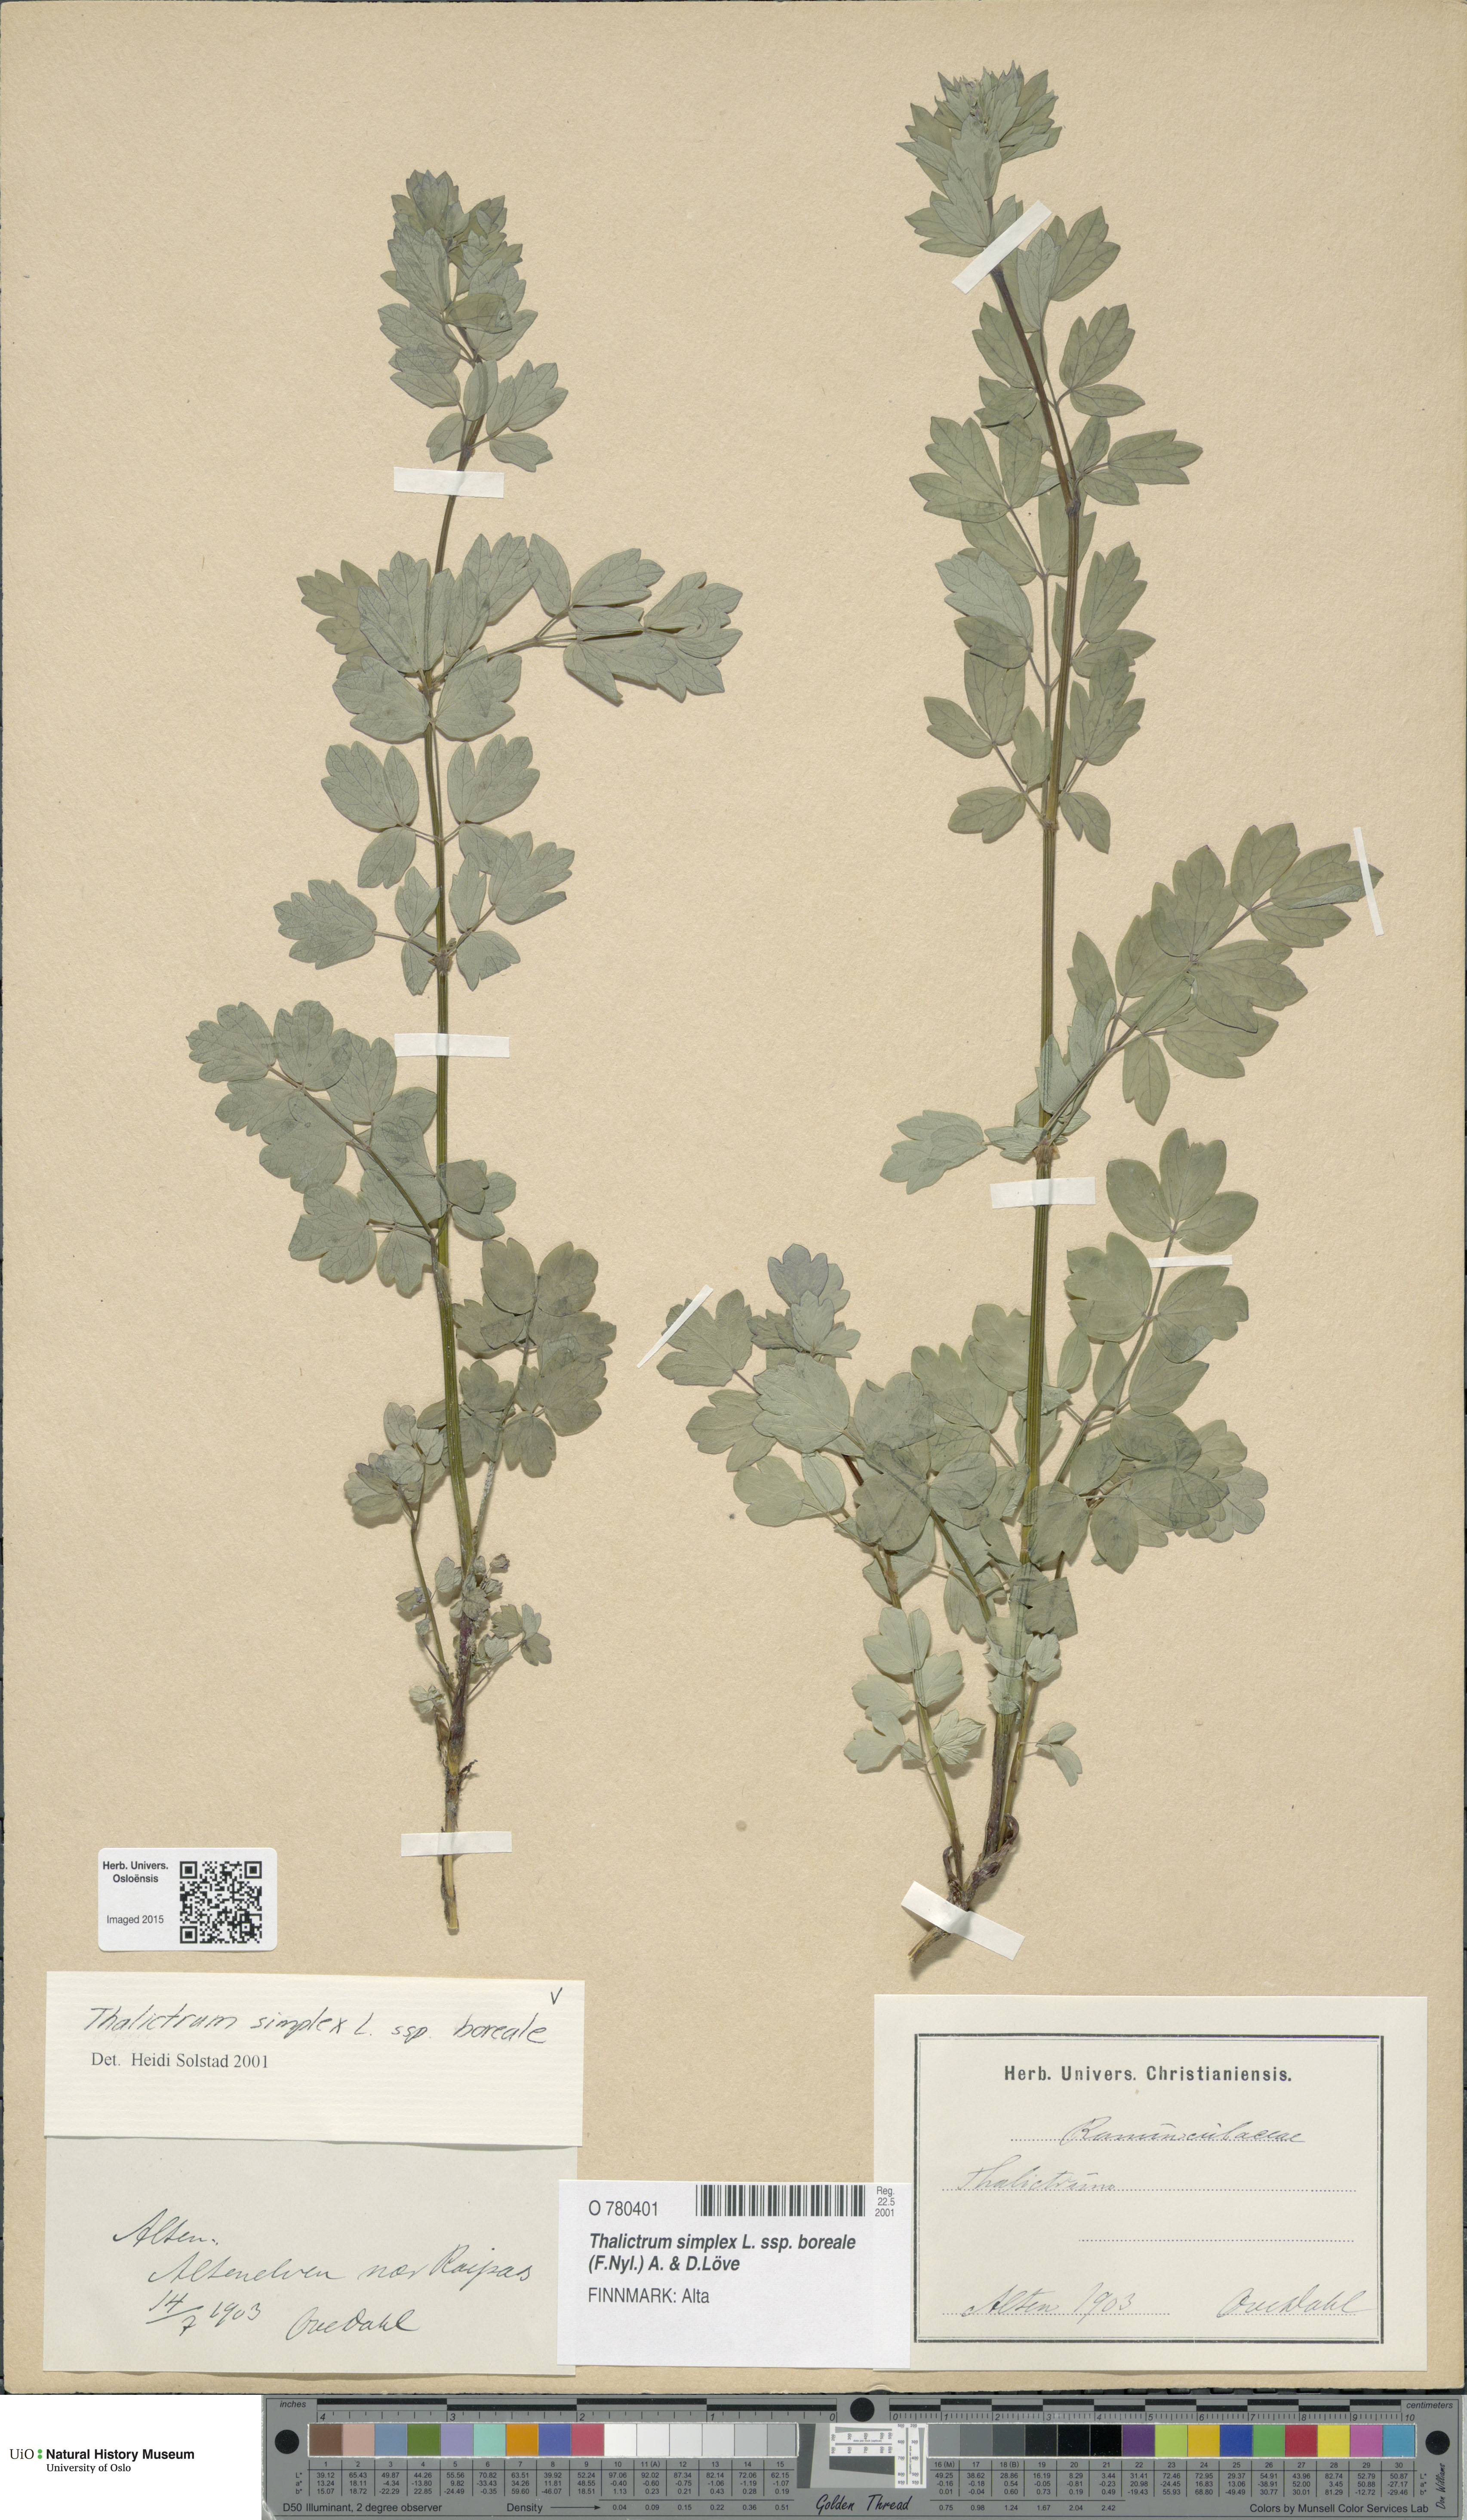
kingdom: Plantae
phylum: Tracheophyta
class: Magnoliopsida
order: Ranunculales
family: Ranunculaceae
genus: Thalictrum
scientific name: Thalictrum simplex
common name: Small meadow-rue
